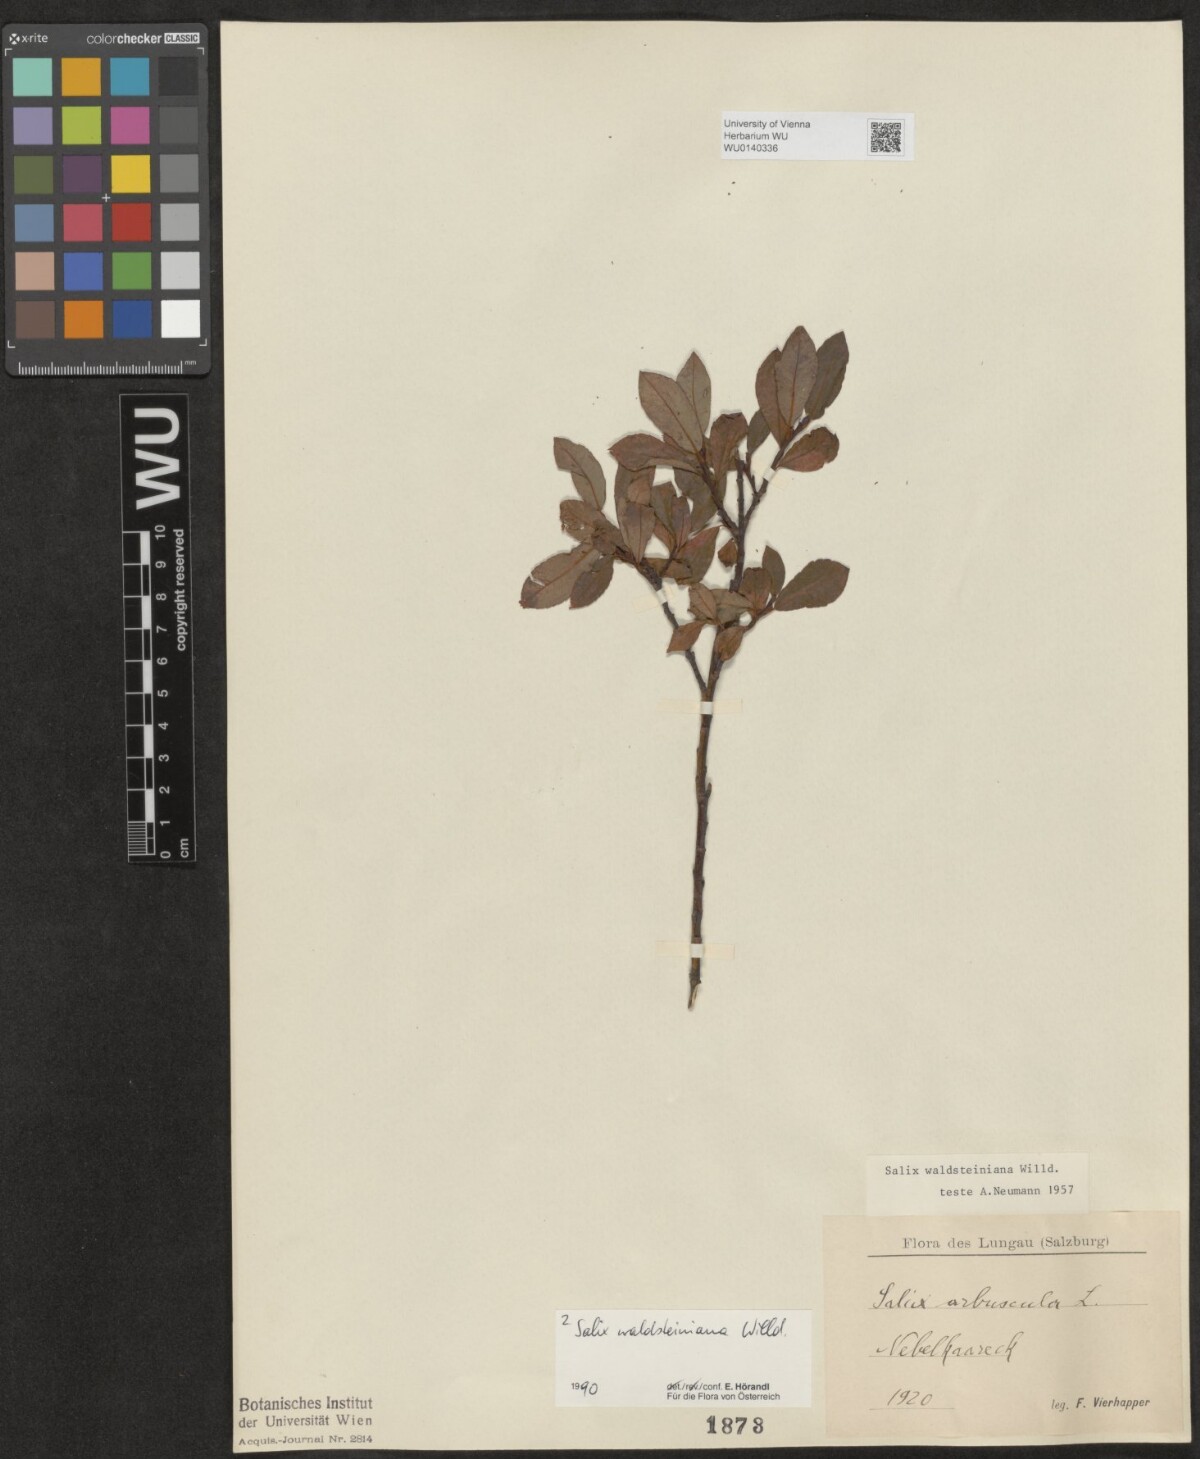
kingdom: Plantae
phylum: Tracheophyta
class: Magnoliopsida
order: Malpighiales
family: Salicaceae
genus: Salix
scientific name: Salix waldsteiniana
